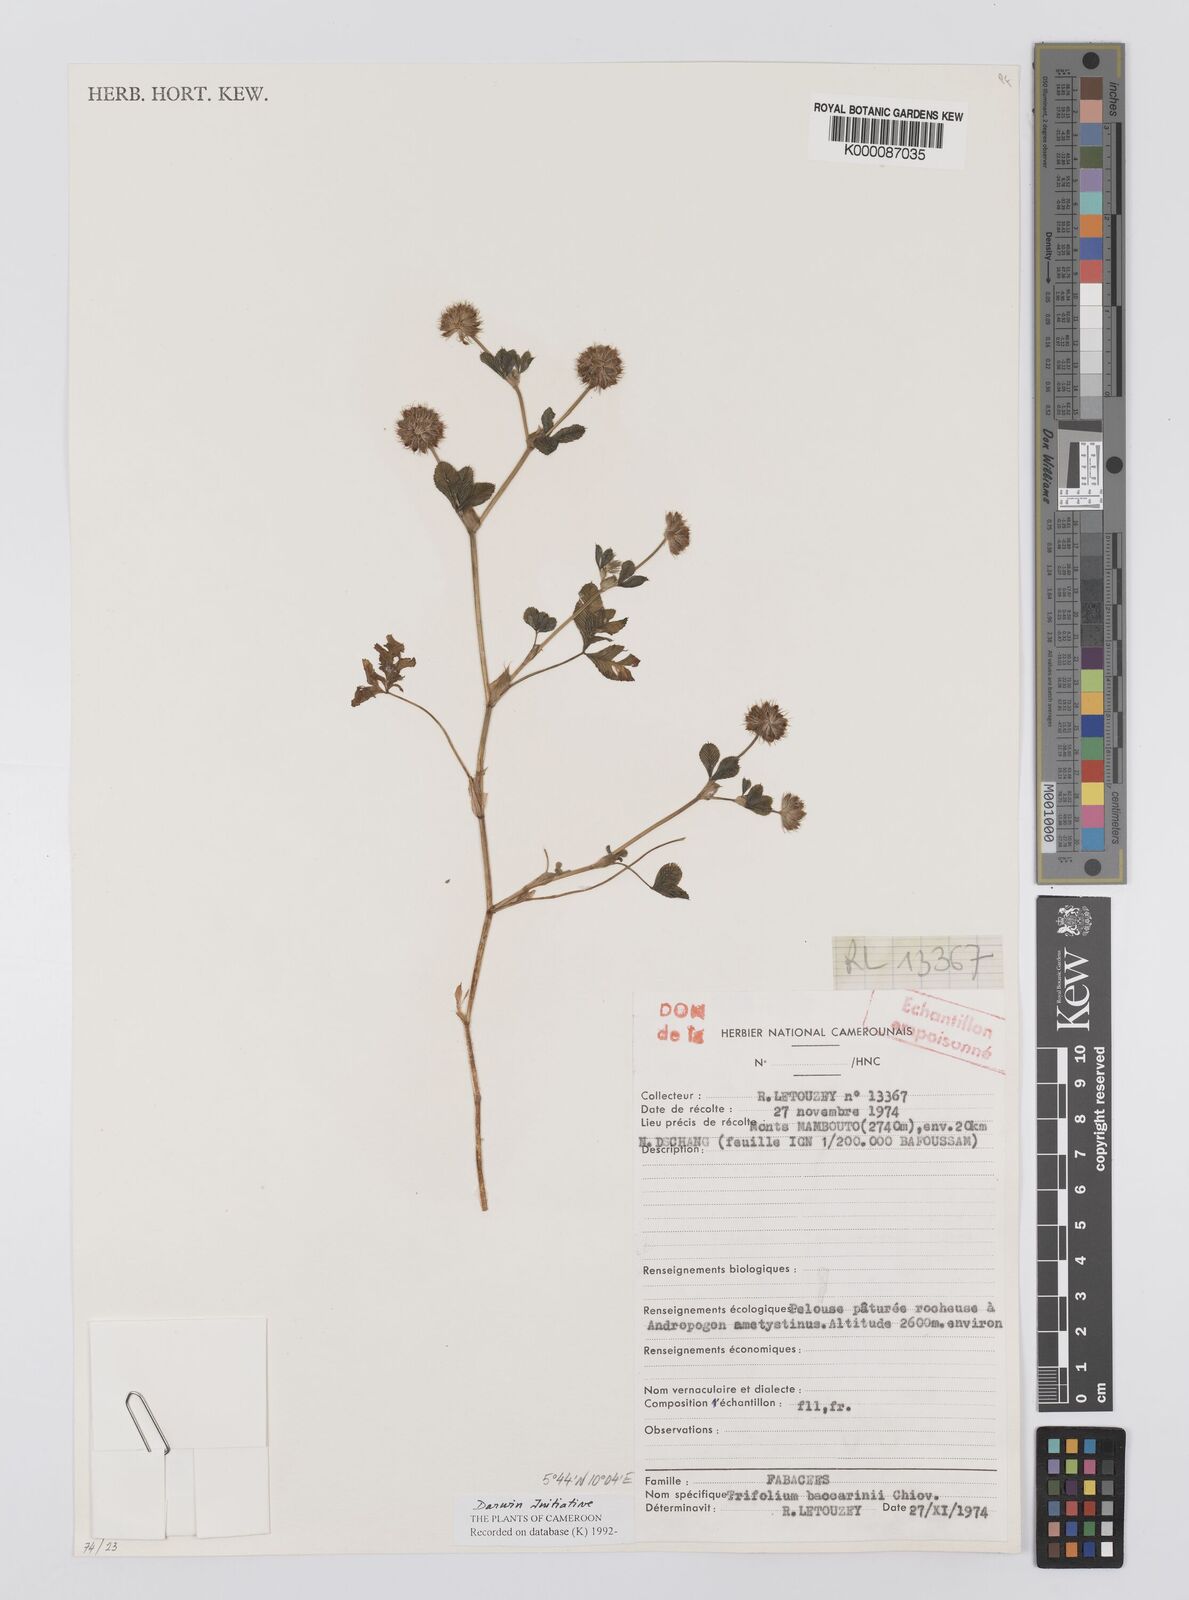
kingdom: Plantae
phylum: Tracheophyta
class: Magnoliopsida
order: Fabales
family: Fabaceae
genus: Trifolium
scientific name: Trifolium baccarinii
